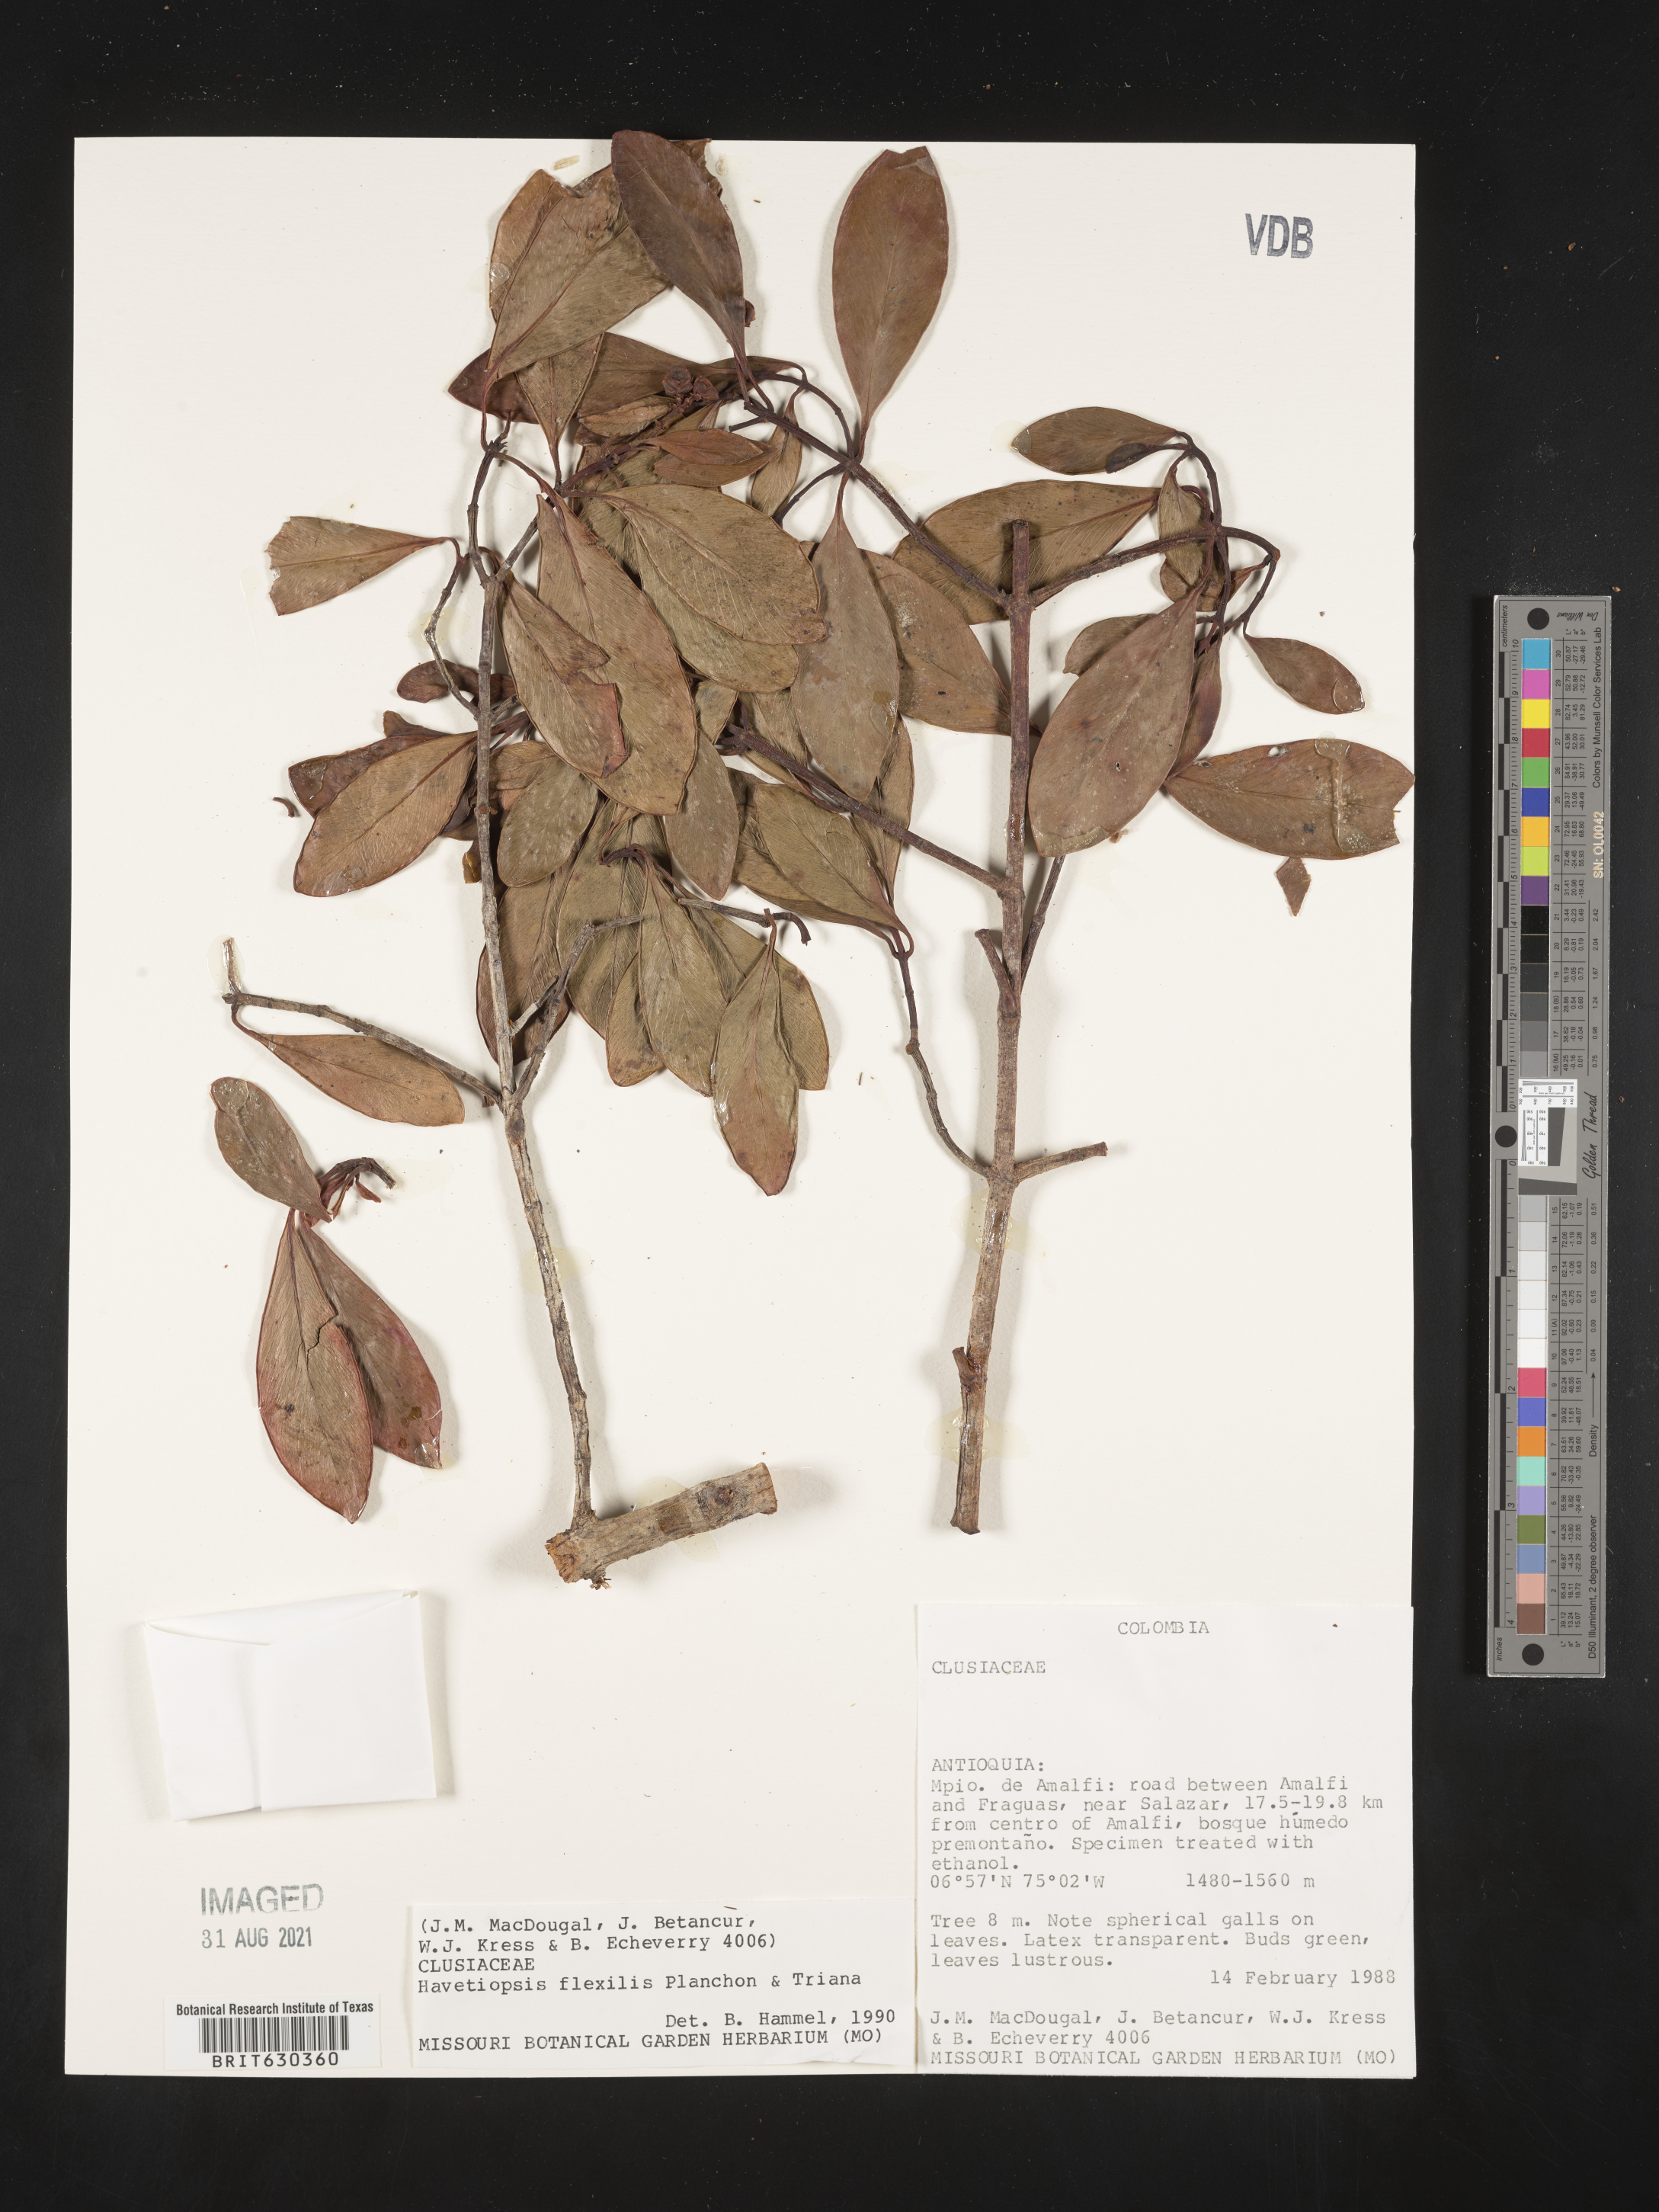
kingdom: Plantae
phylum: Tracheophyta
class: Magnoliopsida
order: Malpighiales
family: Clusiaceae
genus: Clusia
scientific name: Clusia flavida
